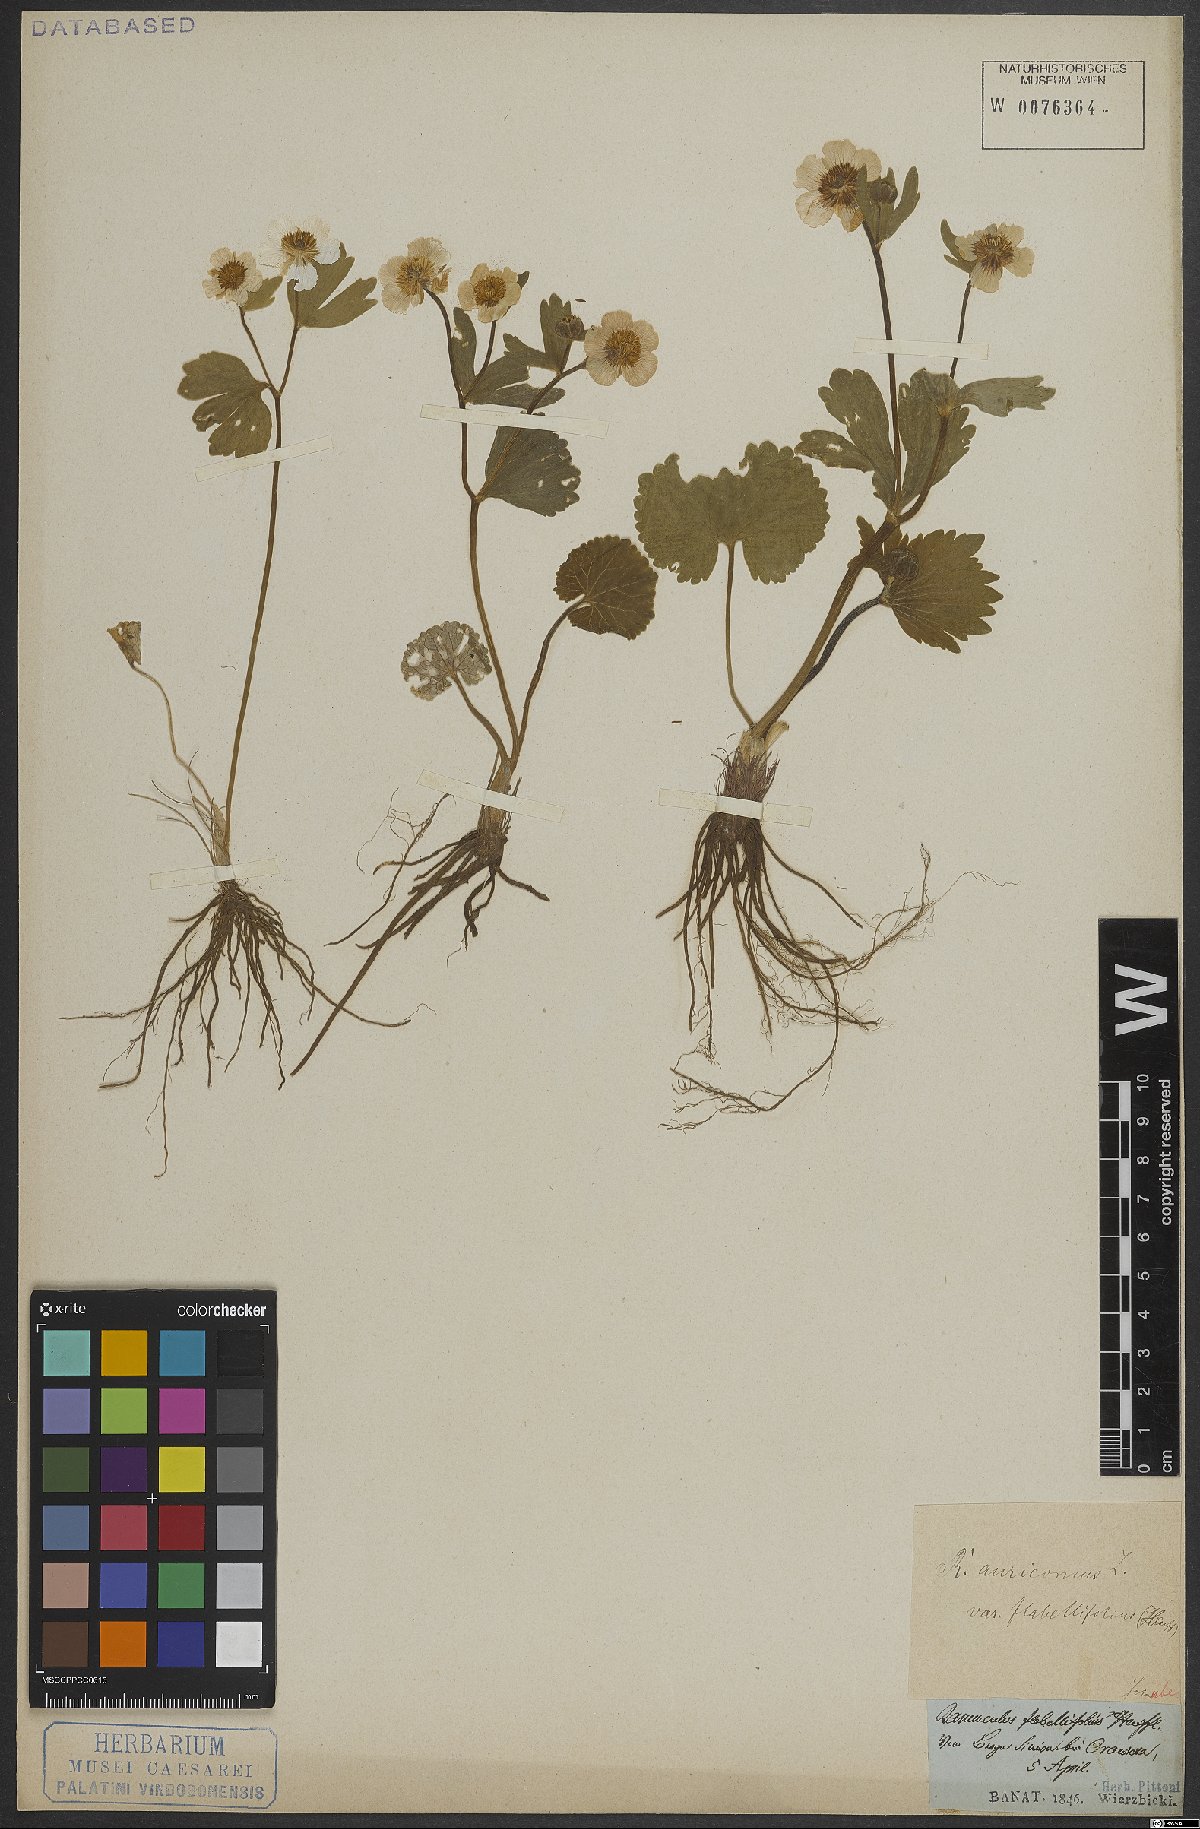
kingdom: Plantae
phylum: Tracheophyta
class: Magnoliopsida
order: Ranunculales
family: Ranunculaceae
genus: Ranunculus
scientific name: Ranunculus auricomus
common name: Goldilocks buttercup
